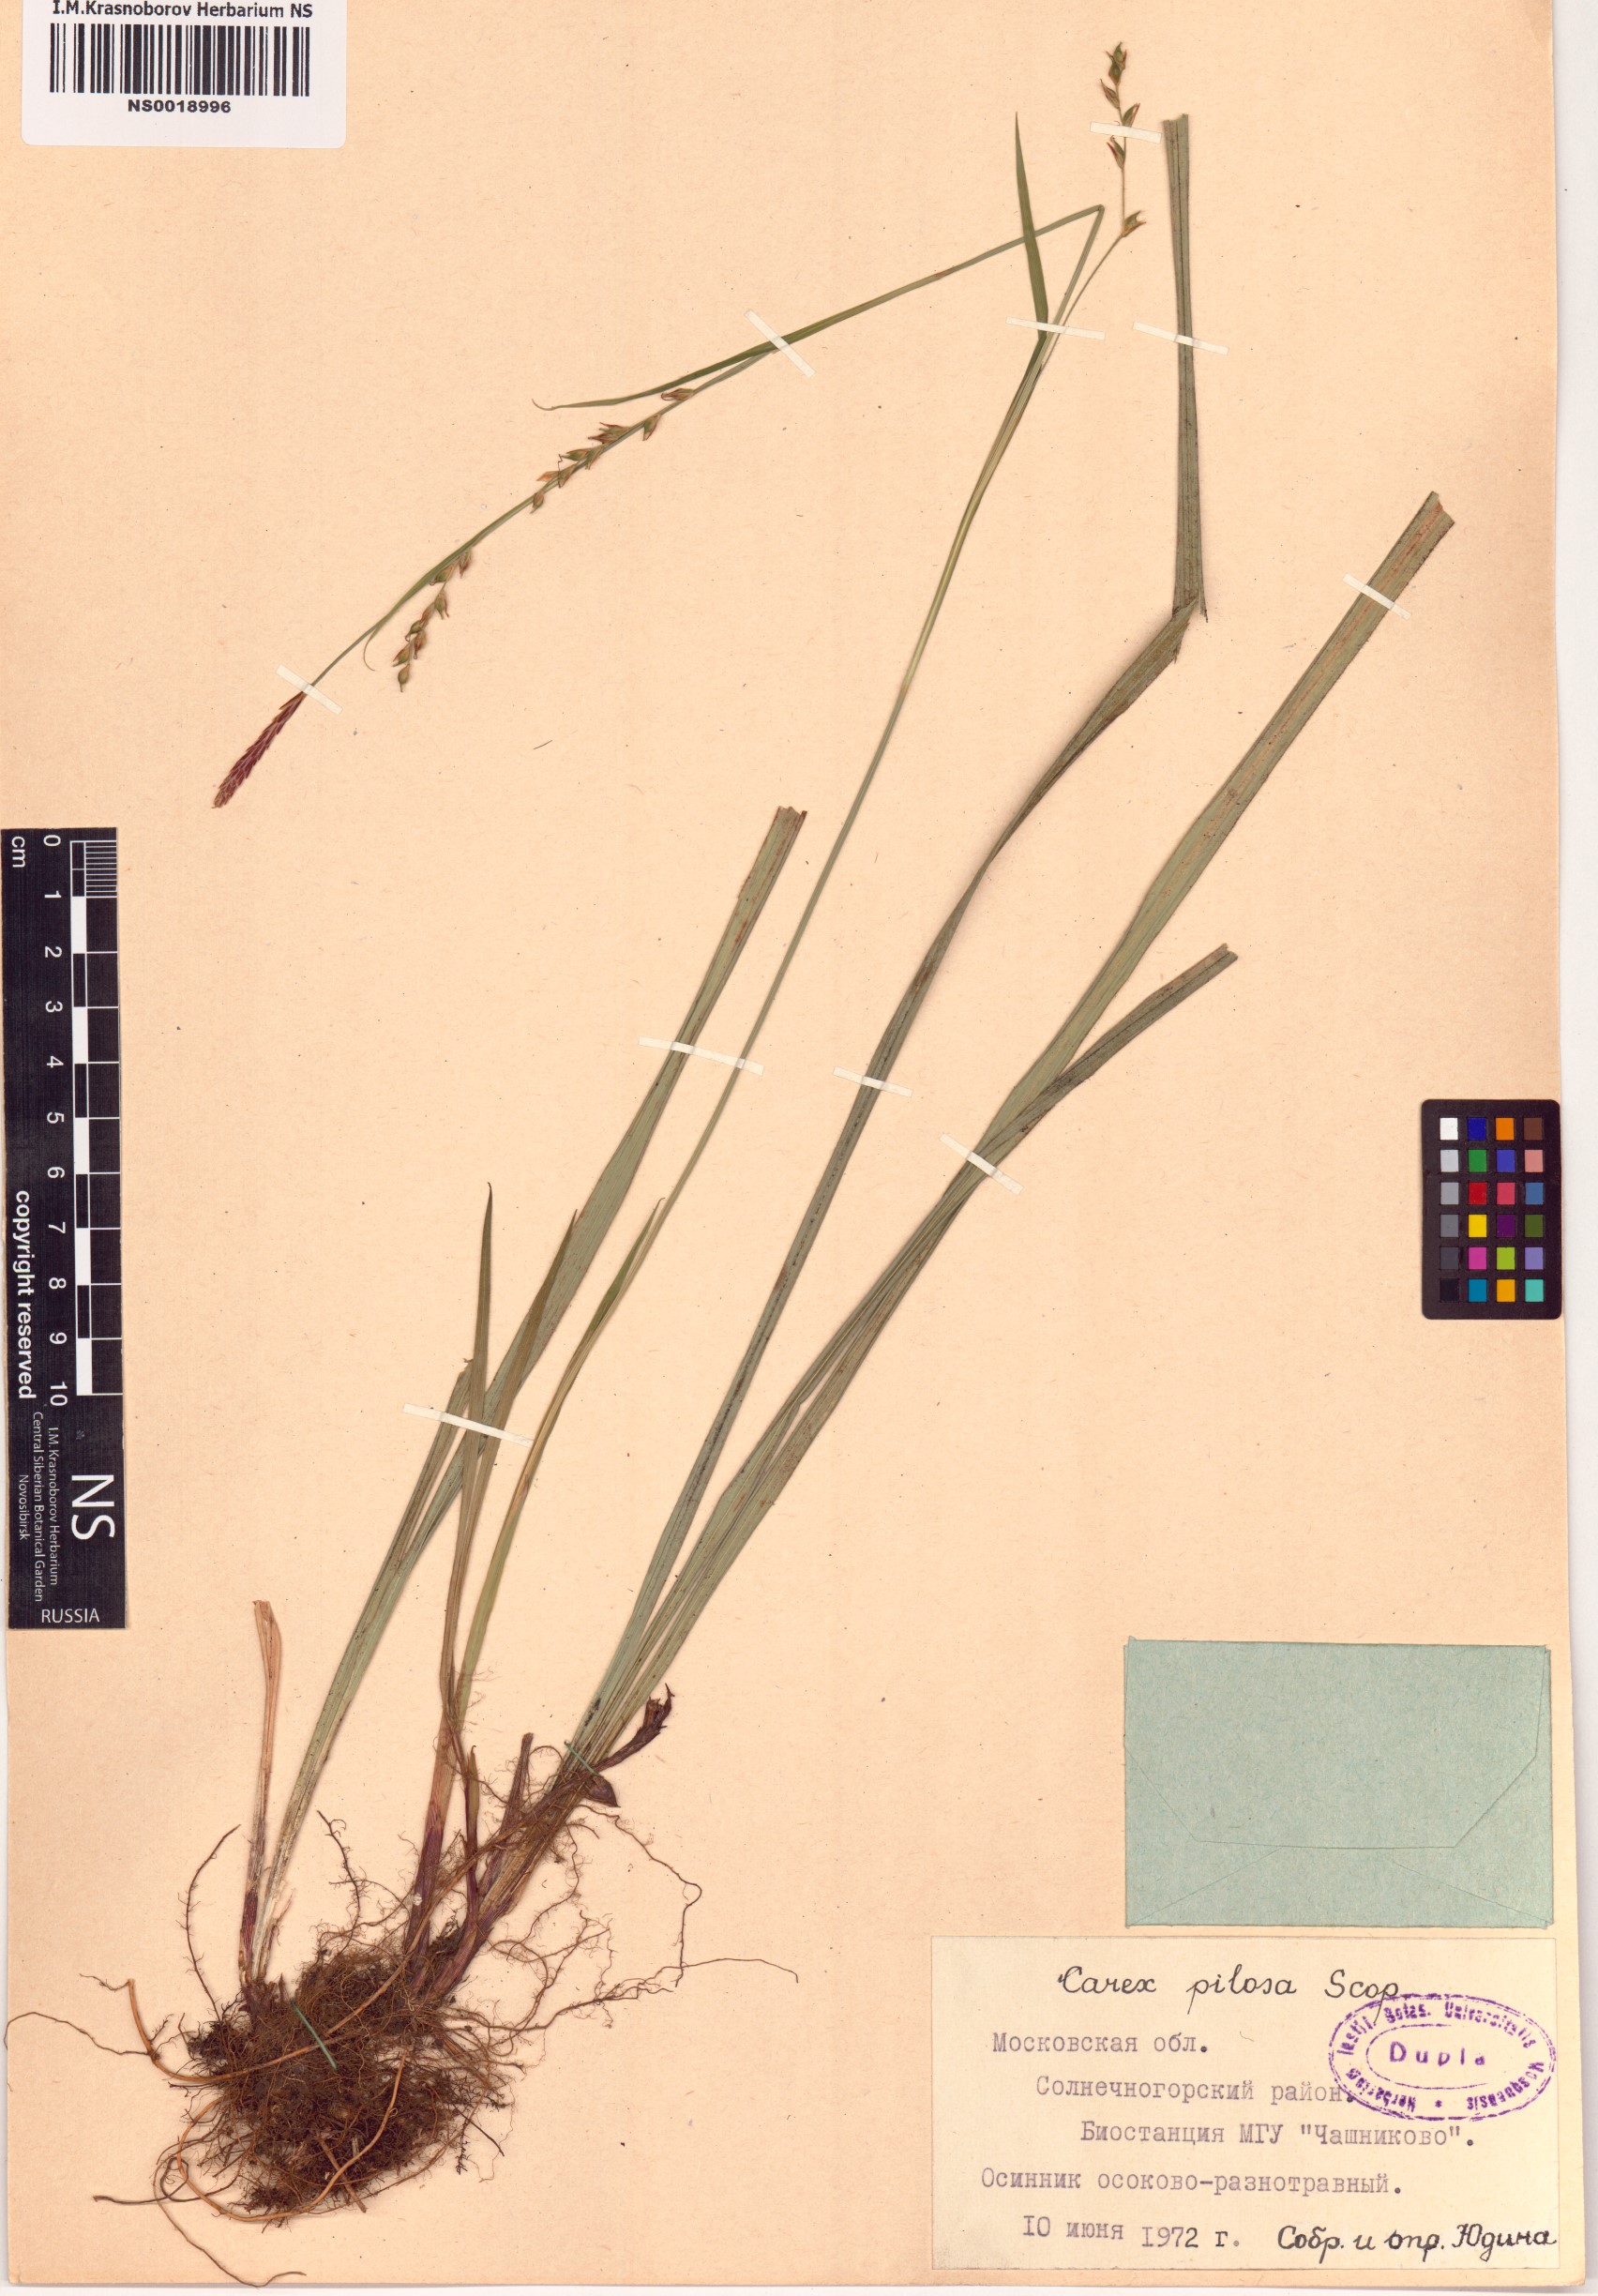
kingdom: Plantae
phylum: Tracheophyta
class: Liliopsida
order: Poales
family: Cyperaceae
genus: Carex
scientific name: Carex pilosa
